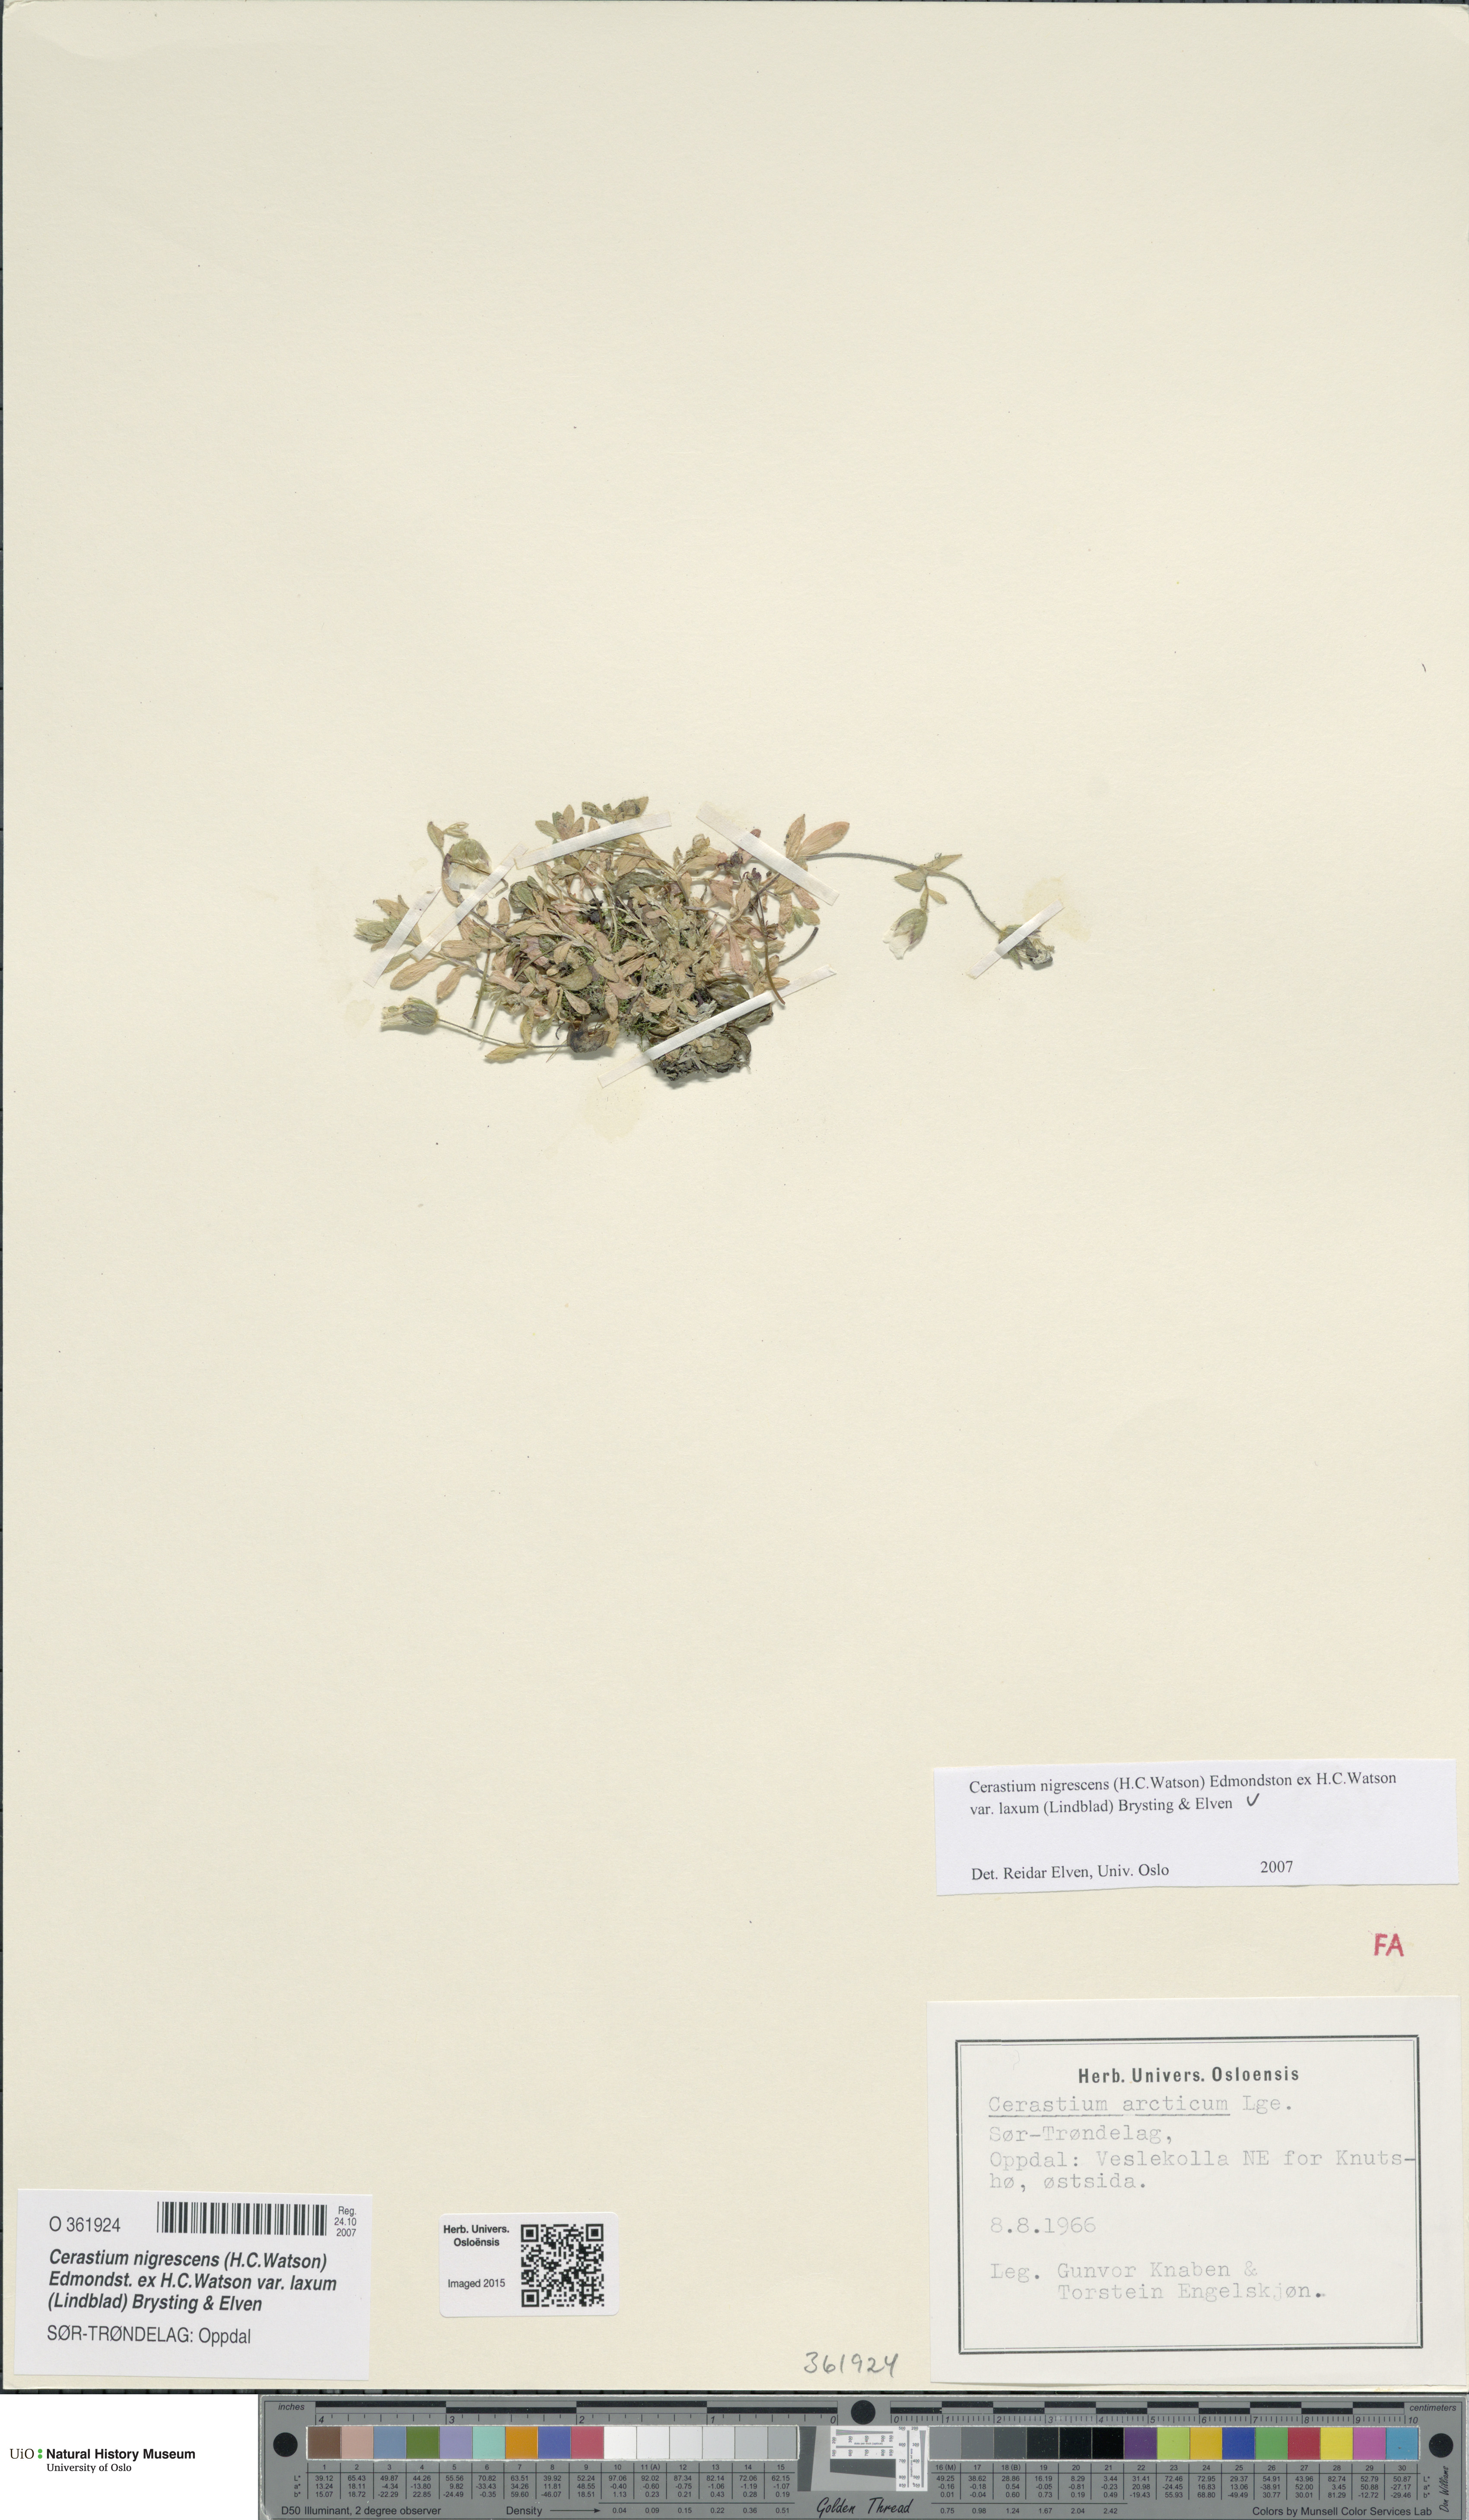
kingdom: Plantae
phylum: Tracheophyta
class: Magnoliopsida
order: Caryophyllales
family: Caryophyllaceae
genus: Cerastium
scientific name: Cerastium nigrescens
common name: Shetland mouse-ear
